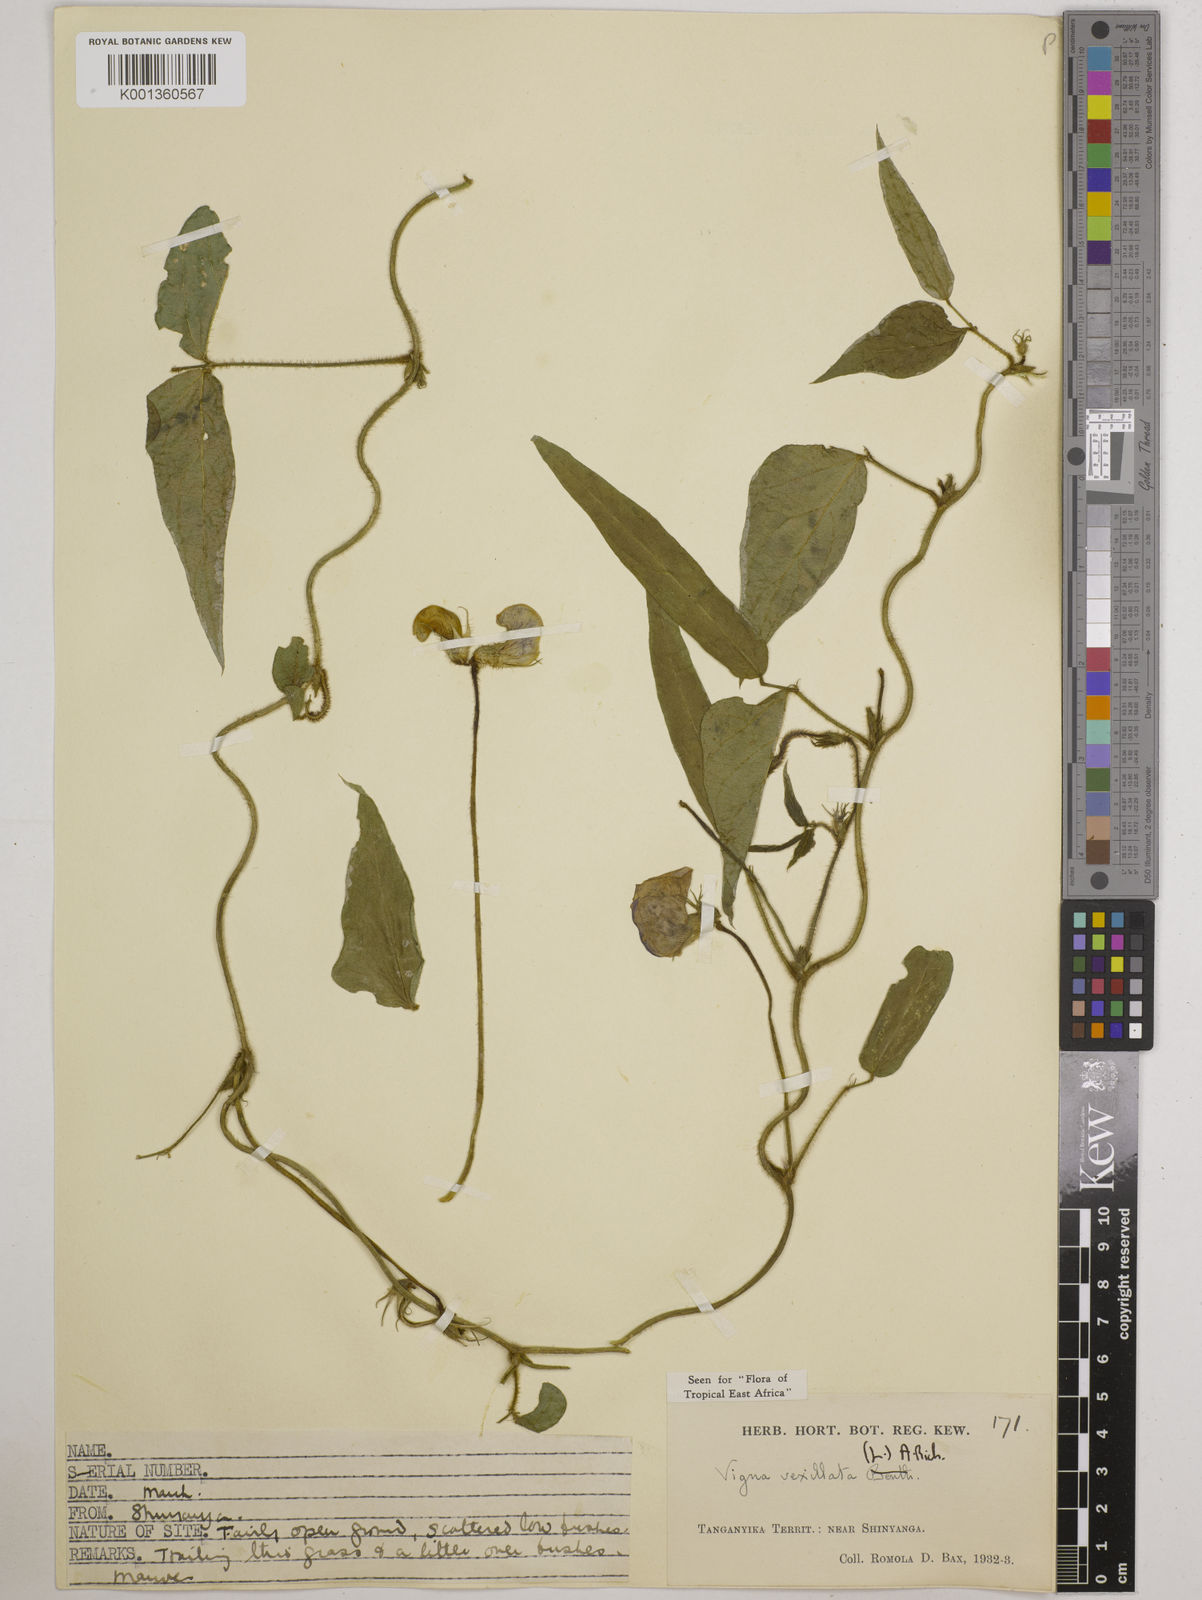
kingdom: Plantae
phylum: Tracheophyta
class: Magnoliopsida
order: Fabales
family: Fabaceae
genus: Vigna
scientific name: Vigna vexillata
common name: Zombi pea
